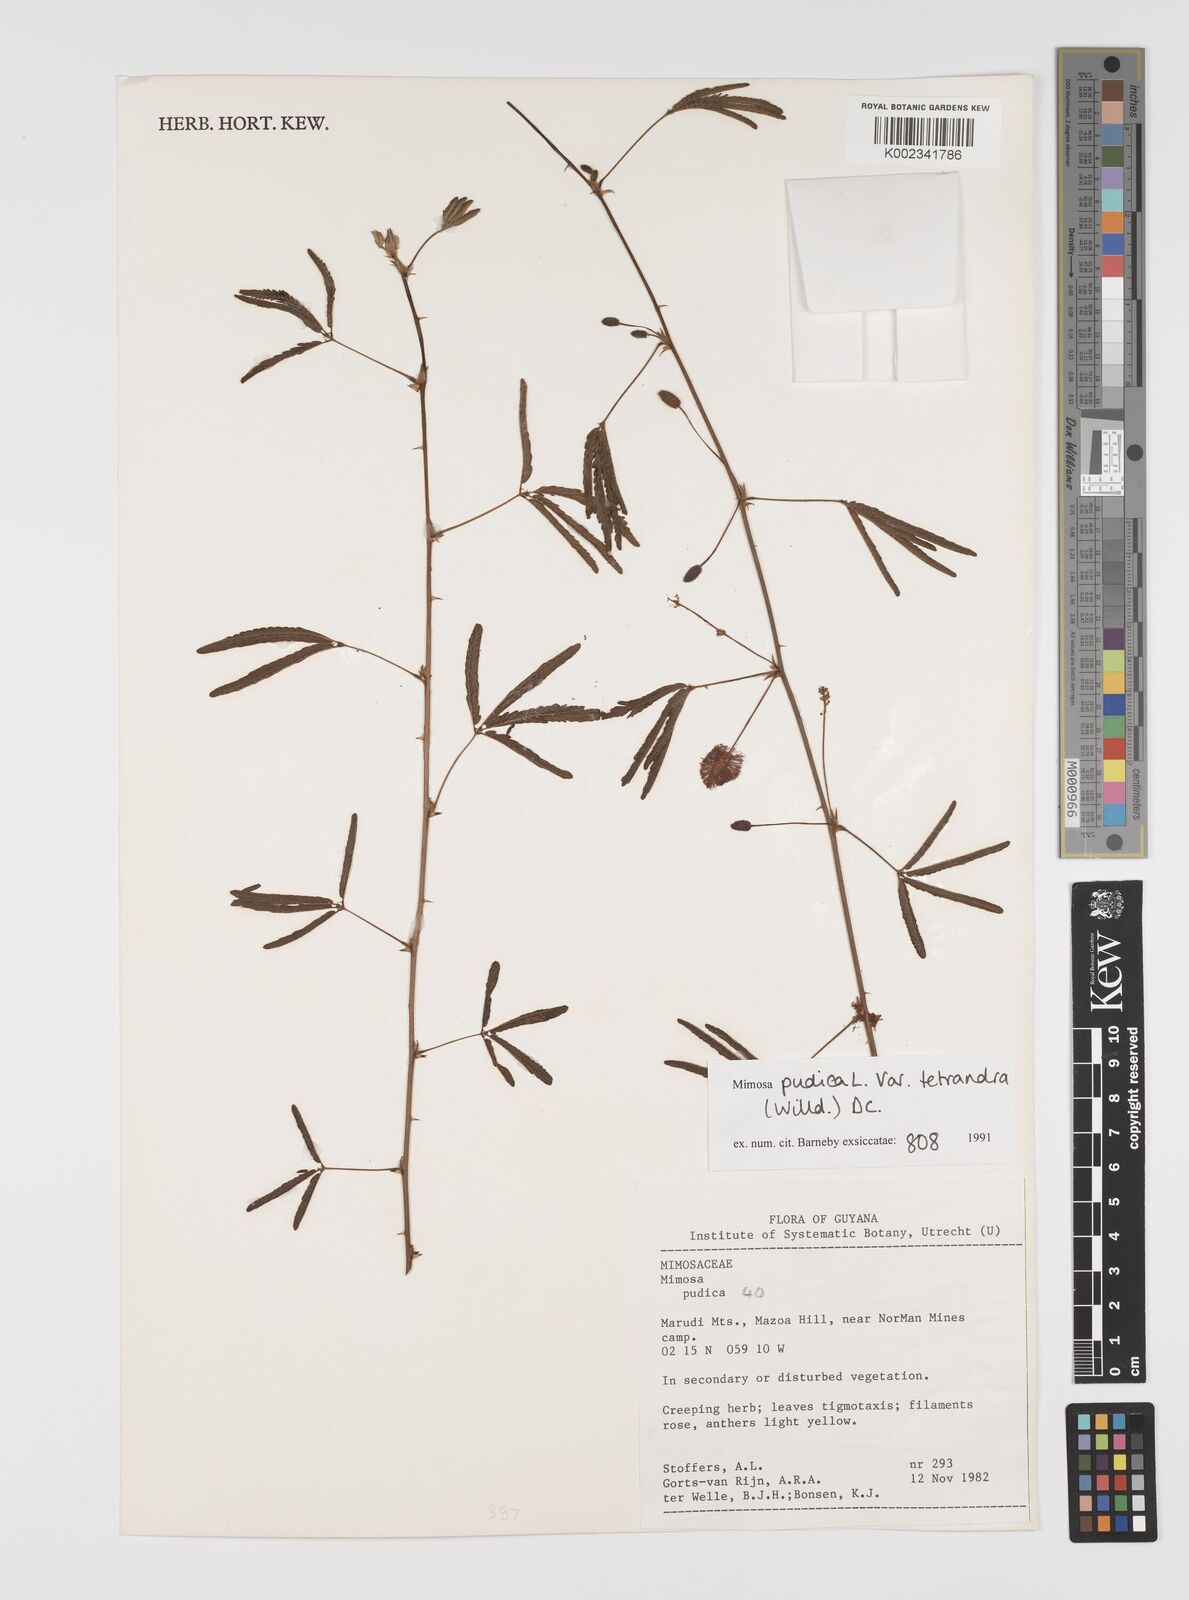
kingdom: Plantae
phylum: Tracheophyta
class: Magnoliopsida
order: Fabales
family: Fabaceae
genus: Mimosa
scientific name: Mimosa pudica
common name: Sensitive plant
